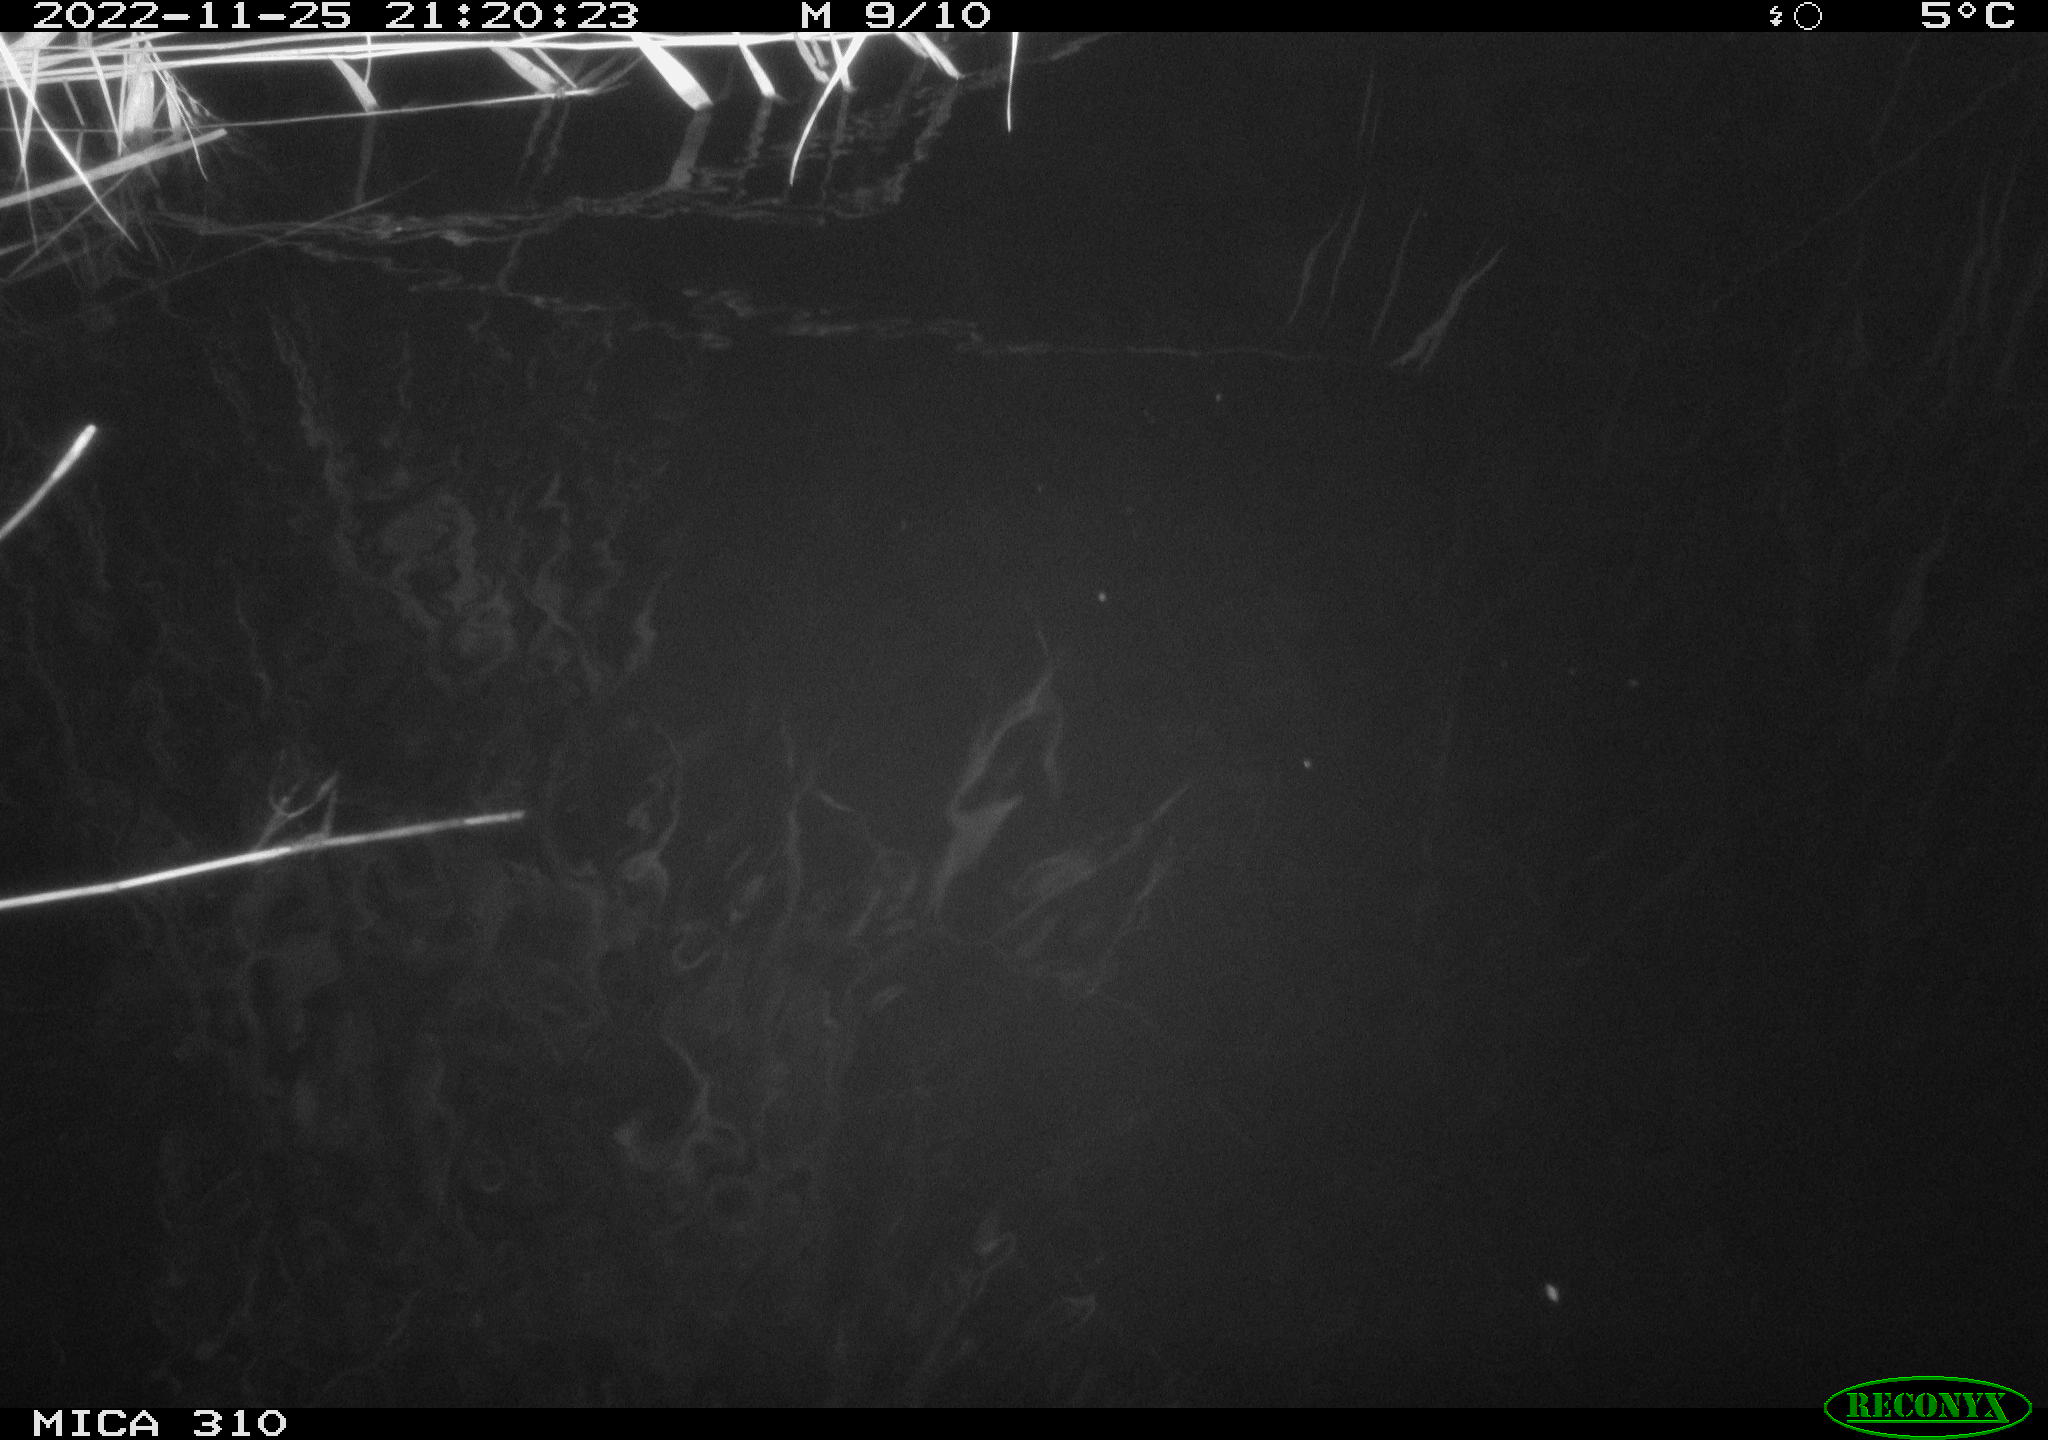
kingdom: Animalia
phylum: Chordata
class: Mammalia
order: Rodentia
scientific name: Rodentia
